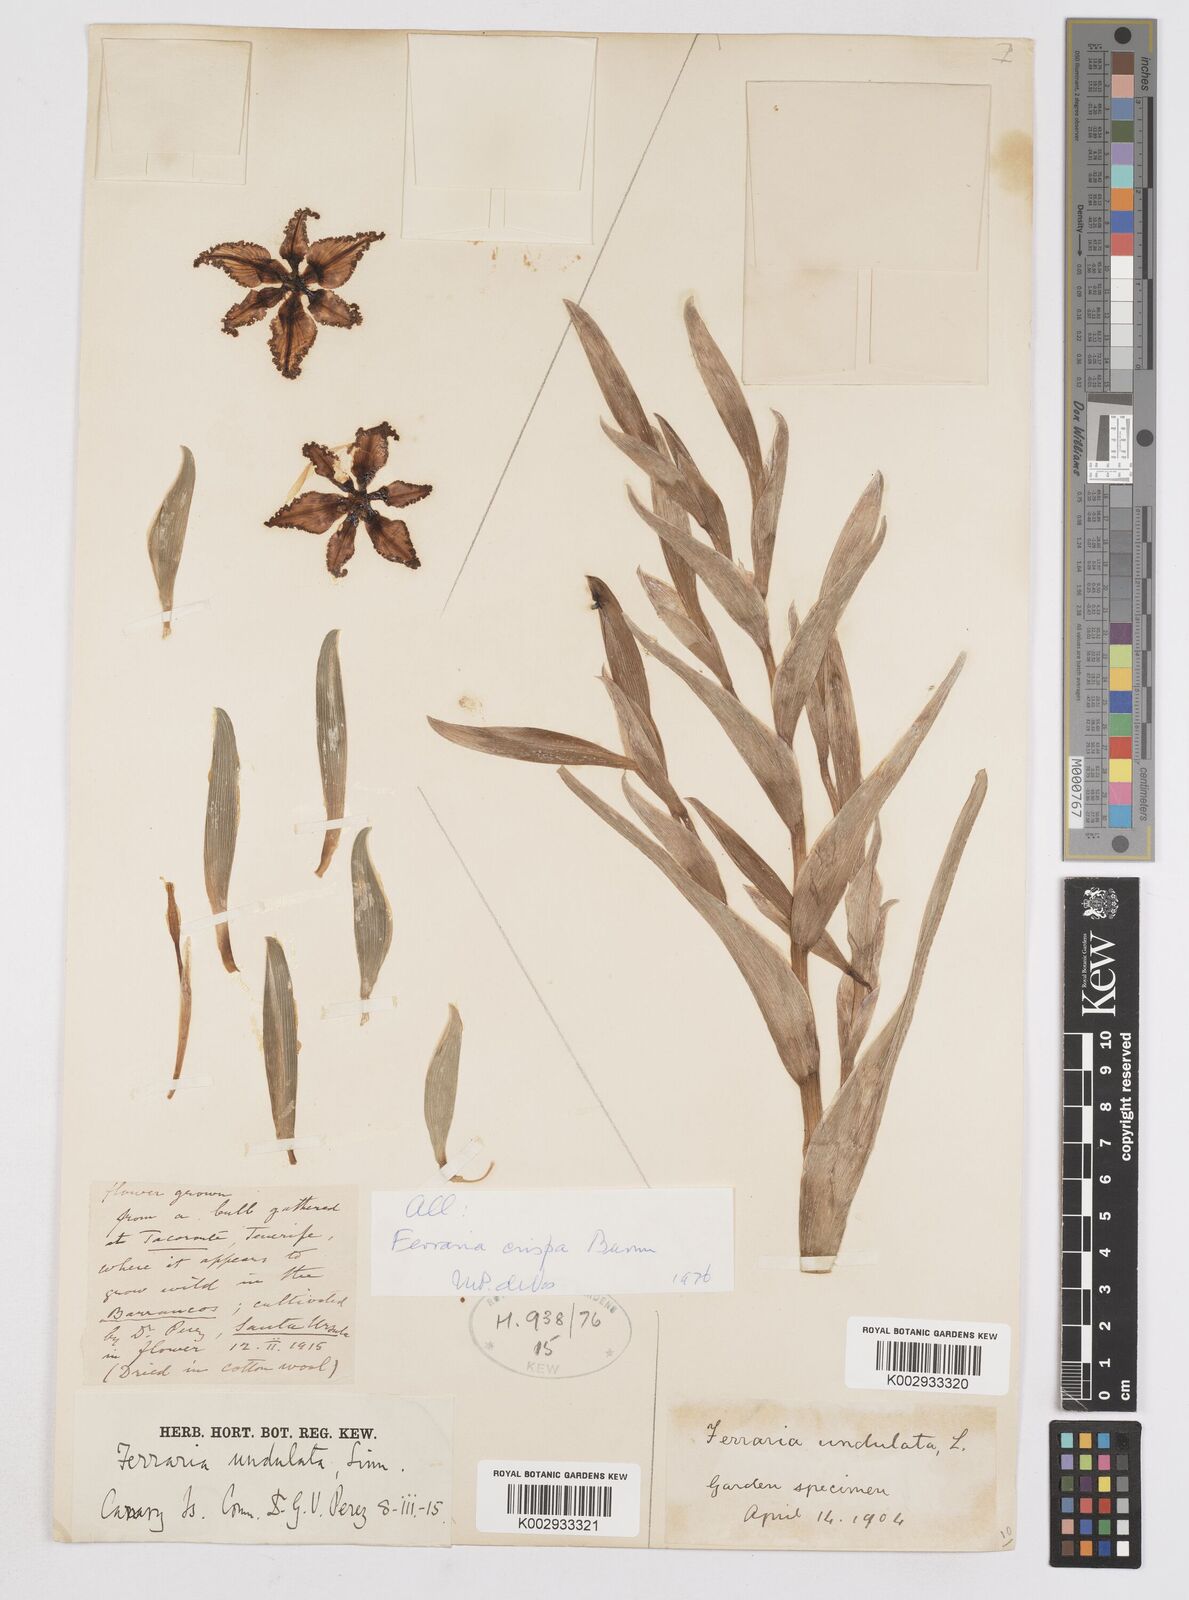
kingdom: Plantae
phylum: Tracheophyta
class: Liliopsida
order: Asparagales
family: Iridaceae
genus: Ferraria
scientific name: Ferraria crispa
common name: Black-flag
